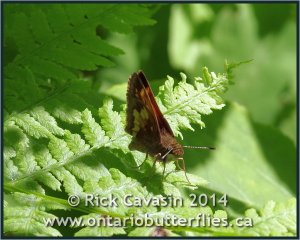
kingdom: Animalia
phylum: Arthropoda
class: Insecta
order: Lepidoptera
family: Hesperiidae
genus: Lon
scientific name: Lon hobomok
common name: Hobomok Skipper
